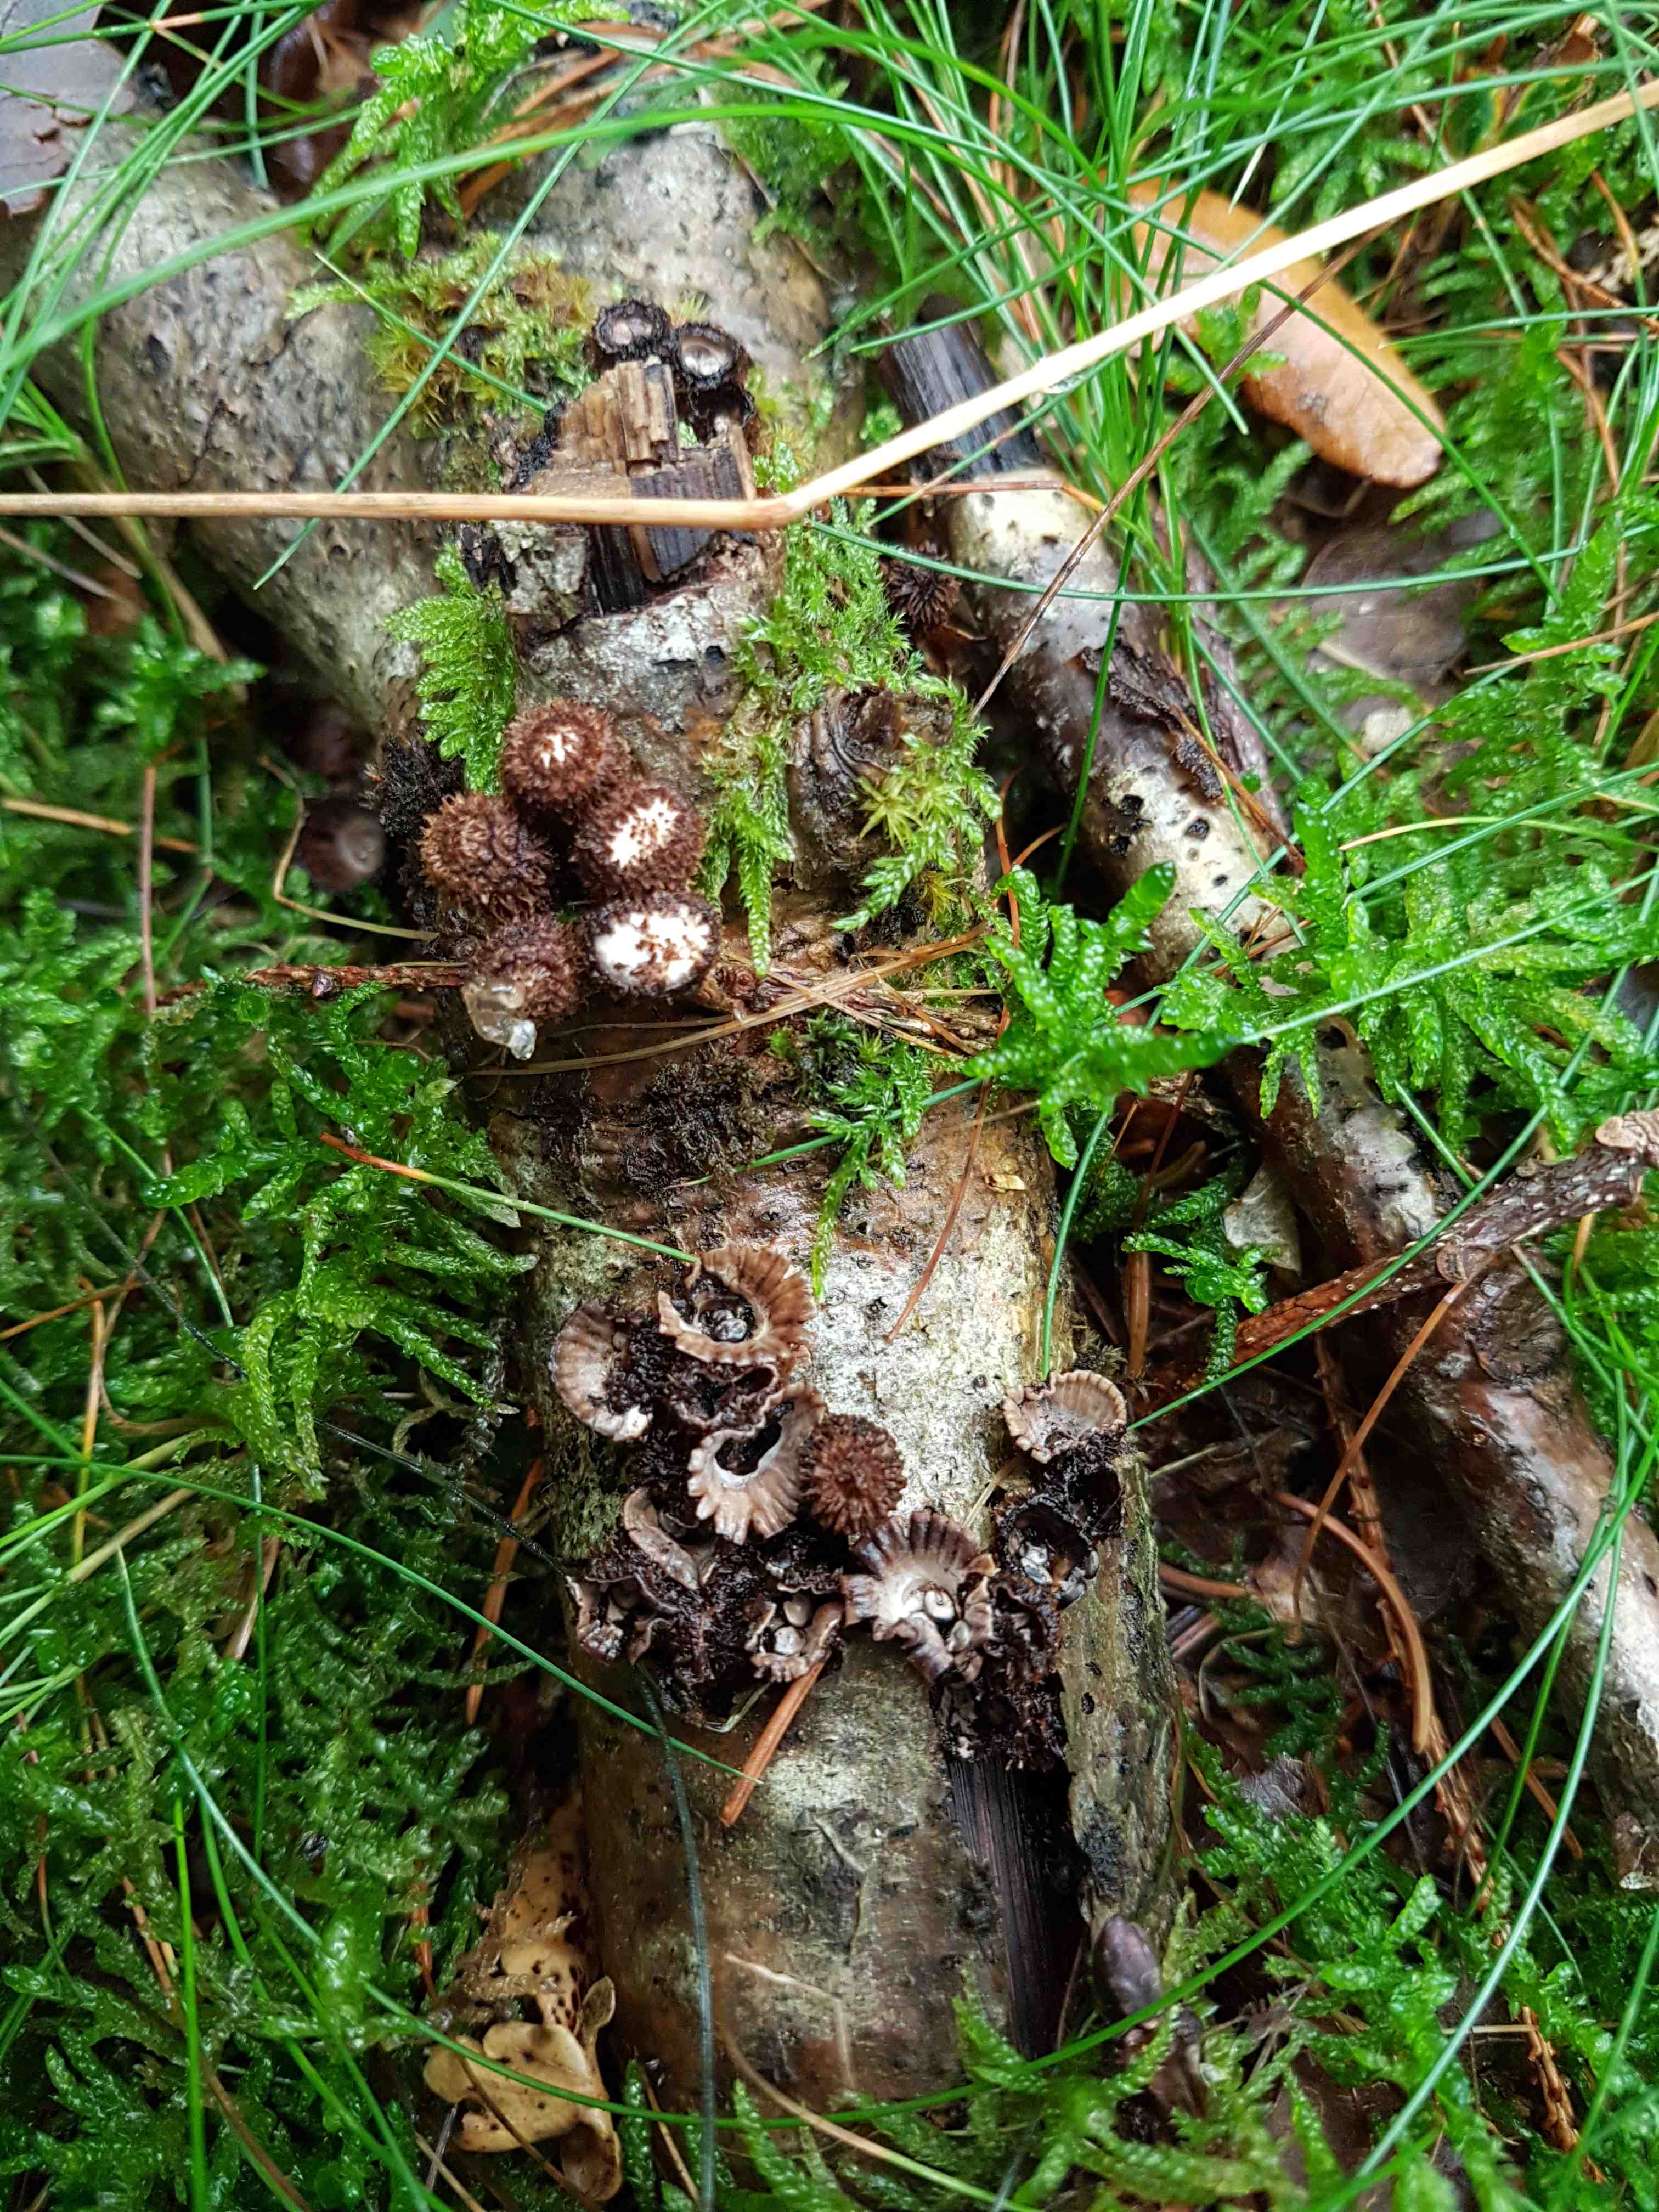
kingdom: Fungi
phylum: Basidiomycota
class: Agaricomycetes
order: Agaricales
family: Agaricaceae
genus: Cyathus
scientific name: Cyathus striatus
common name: stribet redesvamp
